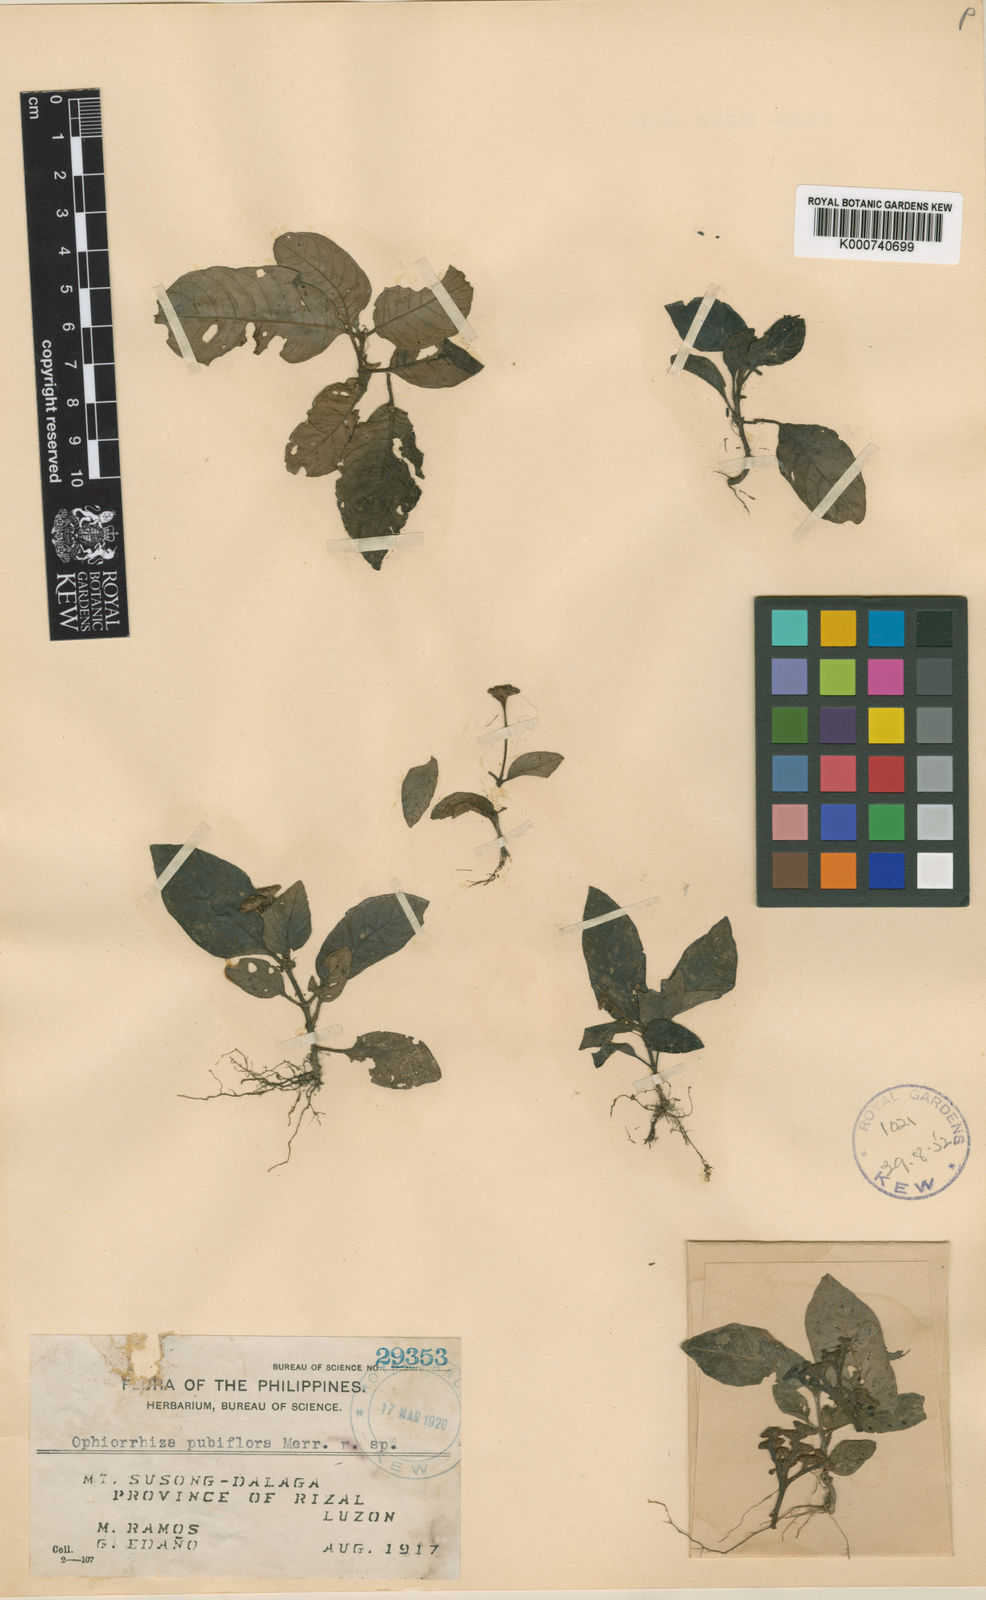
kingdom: Plantae
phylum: Tracheophyta
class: Magnoliopsida
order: Gentianales
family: Rubiaceae
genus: Ophiorrhiza
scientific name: Ophiorrhiza pubiflora
